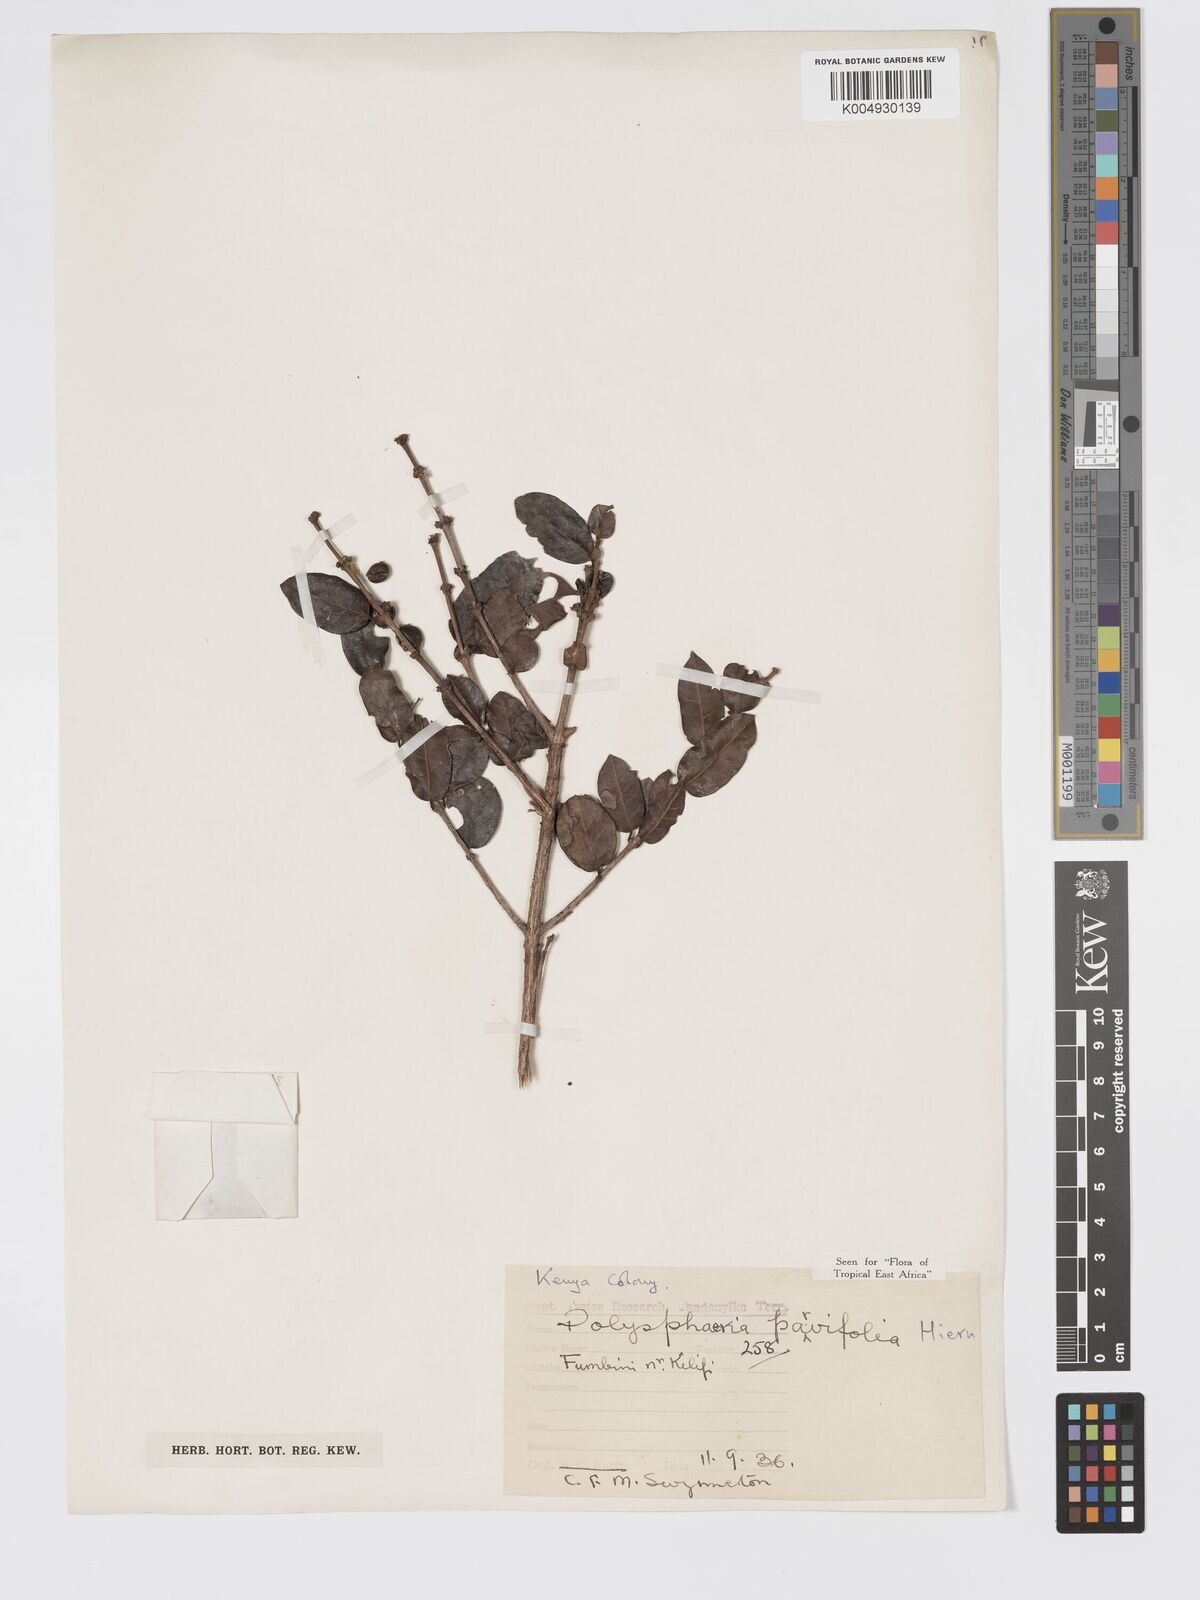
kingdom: Plantae
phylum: Tracheophyta
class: Magnoliopsida
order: Gentianales
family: Rubiaceae
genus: Polysphaeria
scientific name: Polysphaeria parvifolia
